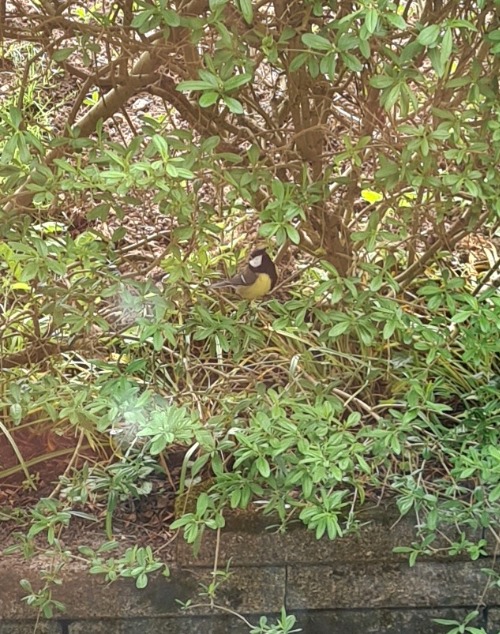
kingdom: Animalia
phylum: Chordata
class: Aves
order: Passeriformes
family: Paridae
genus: Parus
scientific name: Parus major
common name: Musvit
